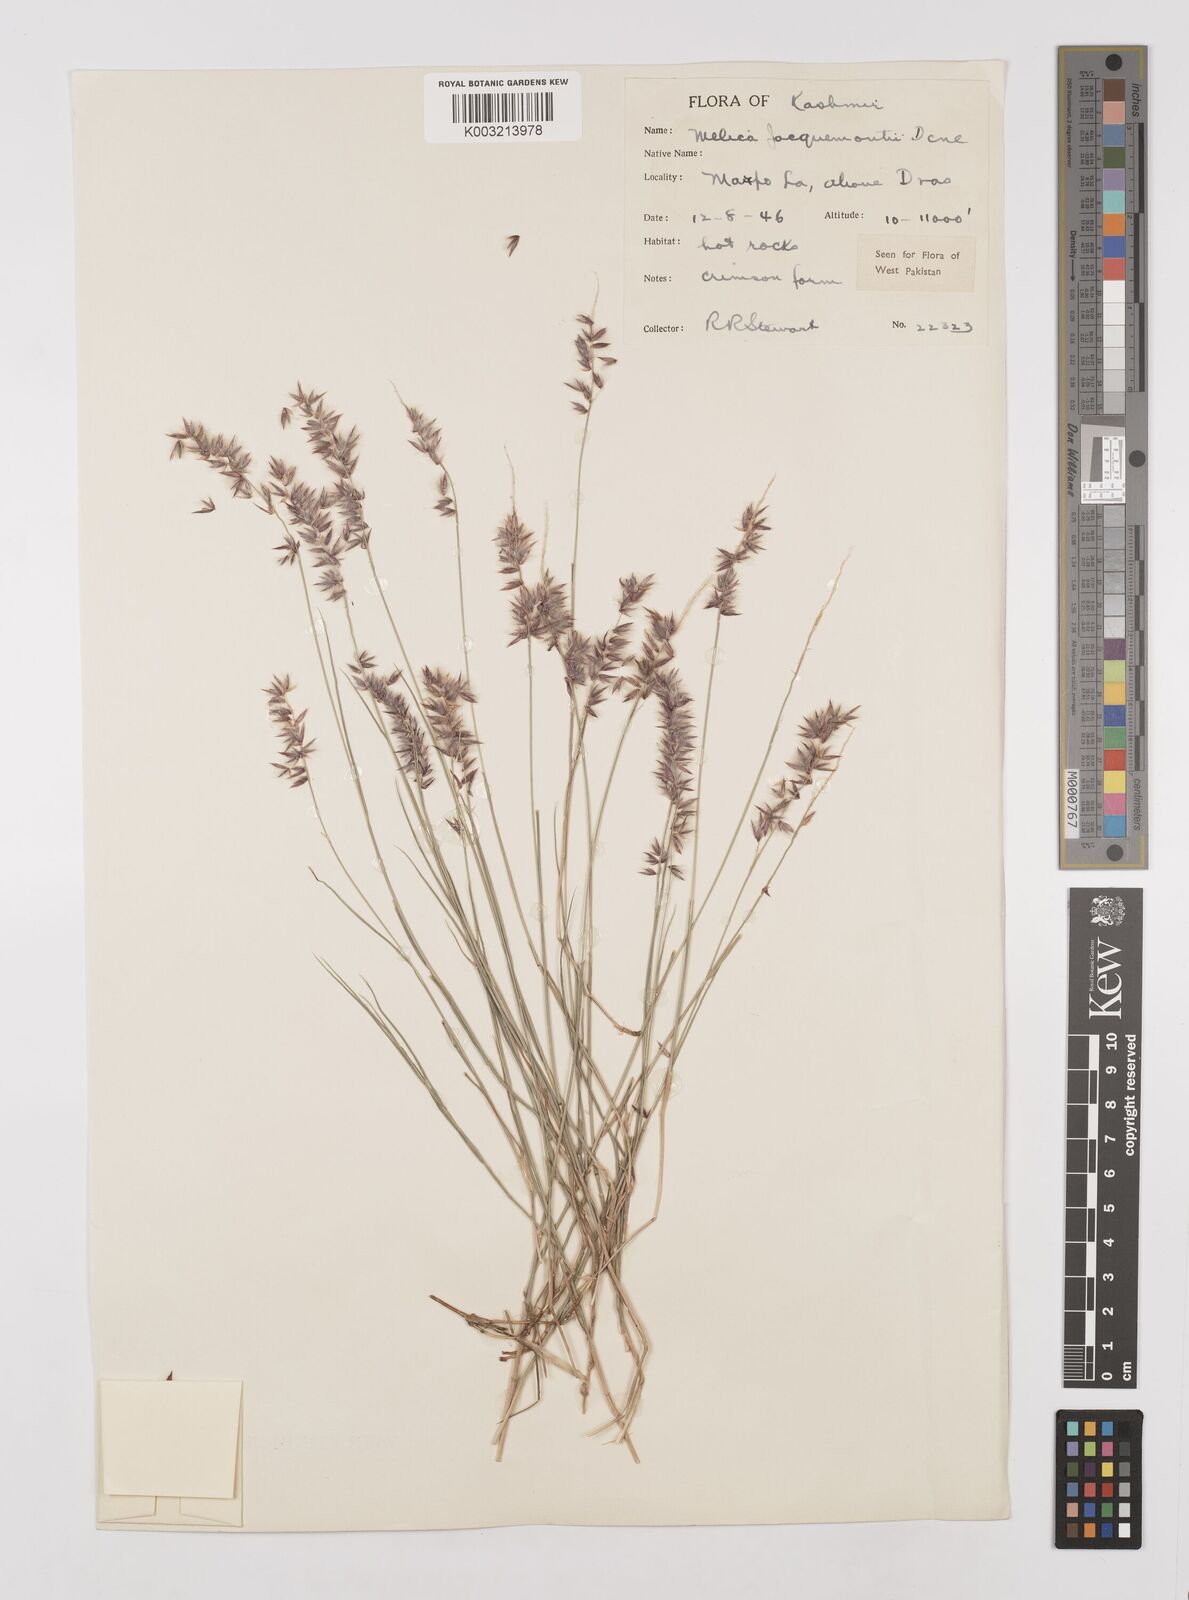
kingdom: Plantae
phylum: Tracheophyta
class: Liliopsida
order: Poales
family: Poaceae
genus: Melica
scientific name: Melica persica
